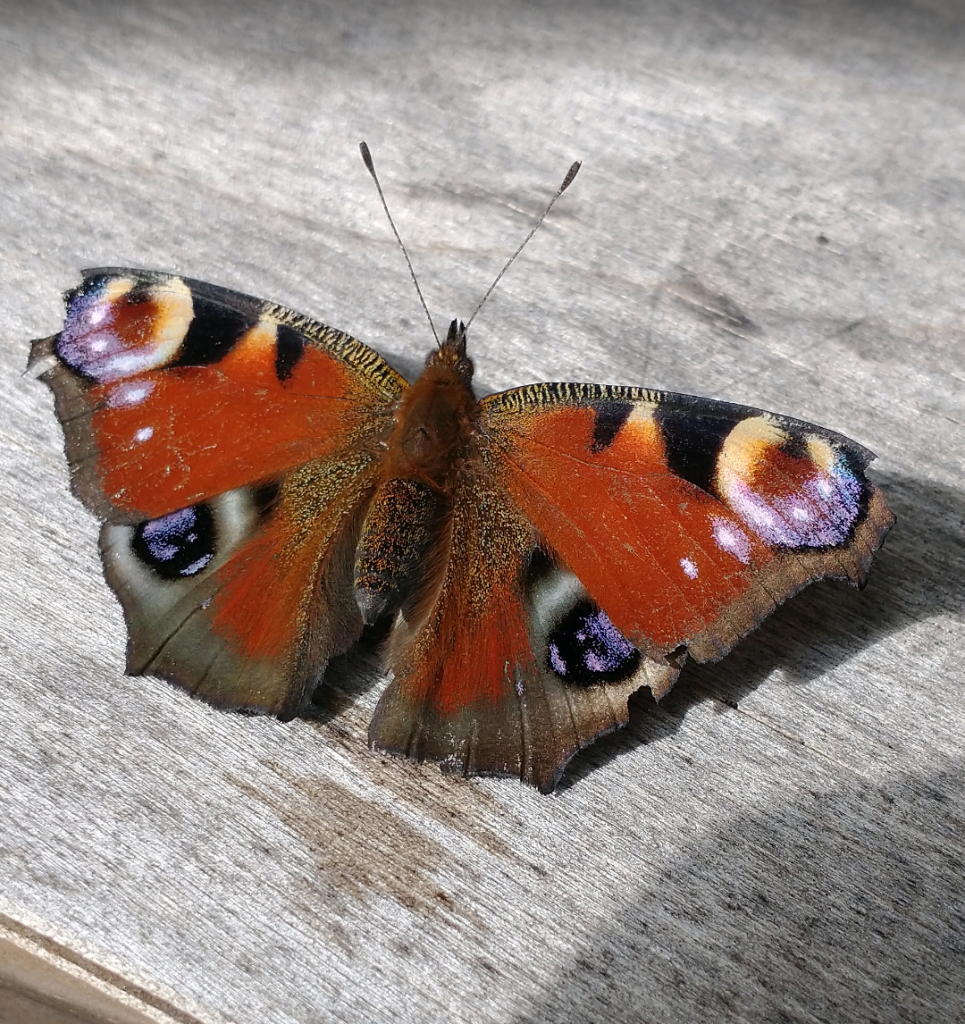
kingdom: Animalia
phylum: Arthropoda
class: Insecta
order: Lepidoptera
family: Nymphalidae
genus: Aglais
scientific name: Aglais io
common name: European Peacock
